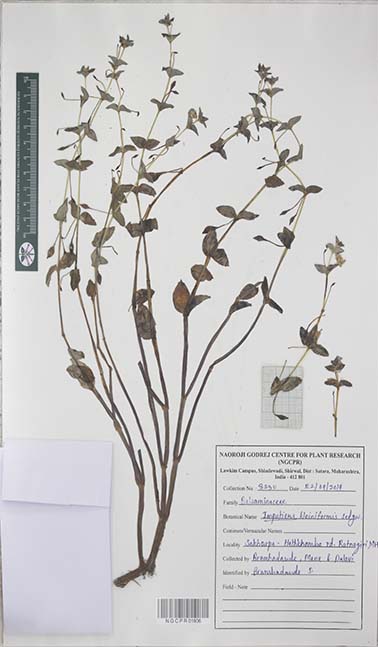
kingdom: Plantae
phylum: Tracheophyta
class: Magnoliopsida
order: Ericales
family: Balsaminaceae
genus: Impatiens
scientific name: Impatiens kleiniformis
